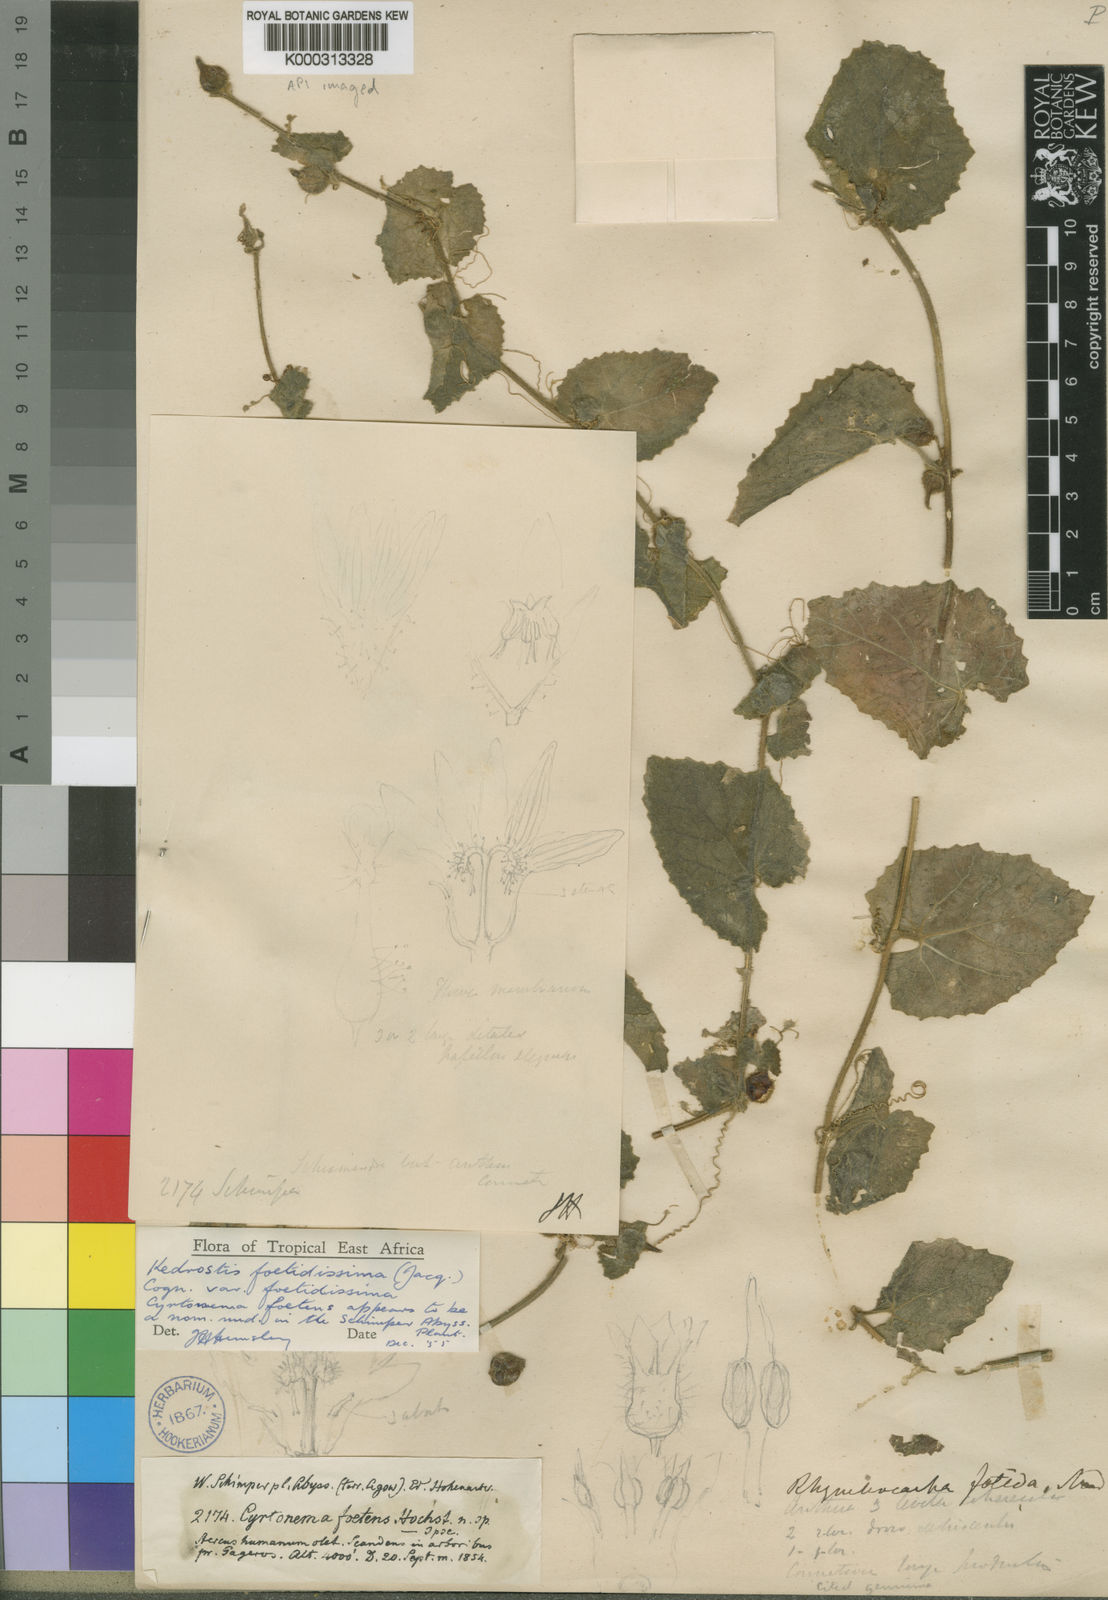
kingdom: Plantae
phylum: Tracheophyta
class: Magnoliopsida
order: Cucurbitales
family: Cucurbitaceae
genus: Kedrostis
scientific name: Kedrostis foetidissima
